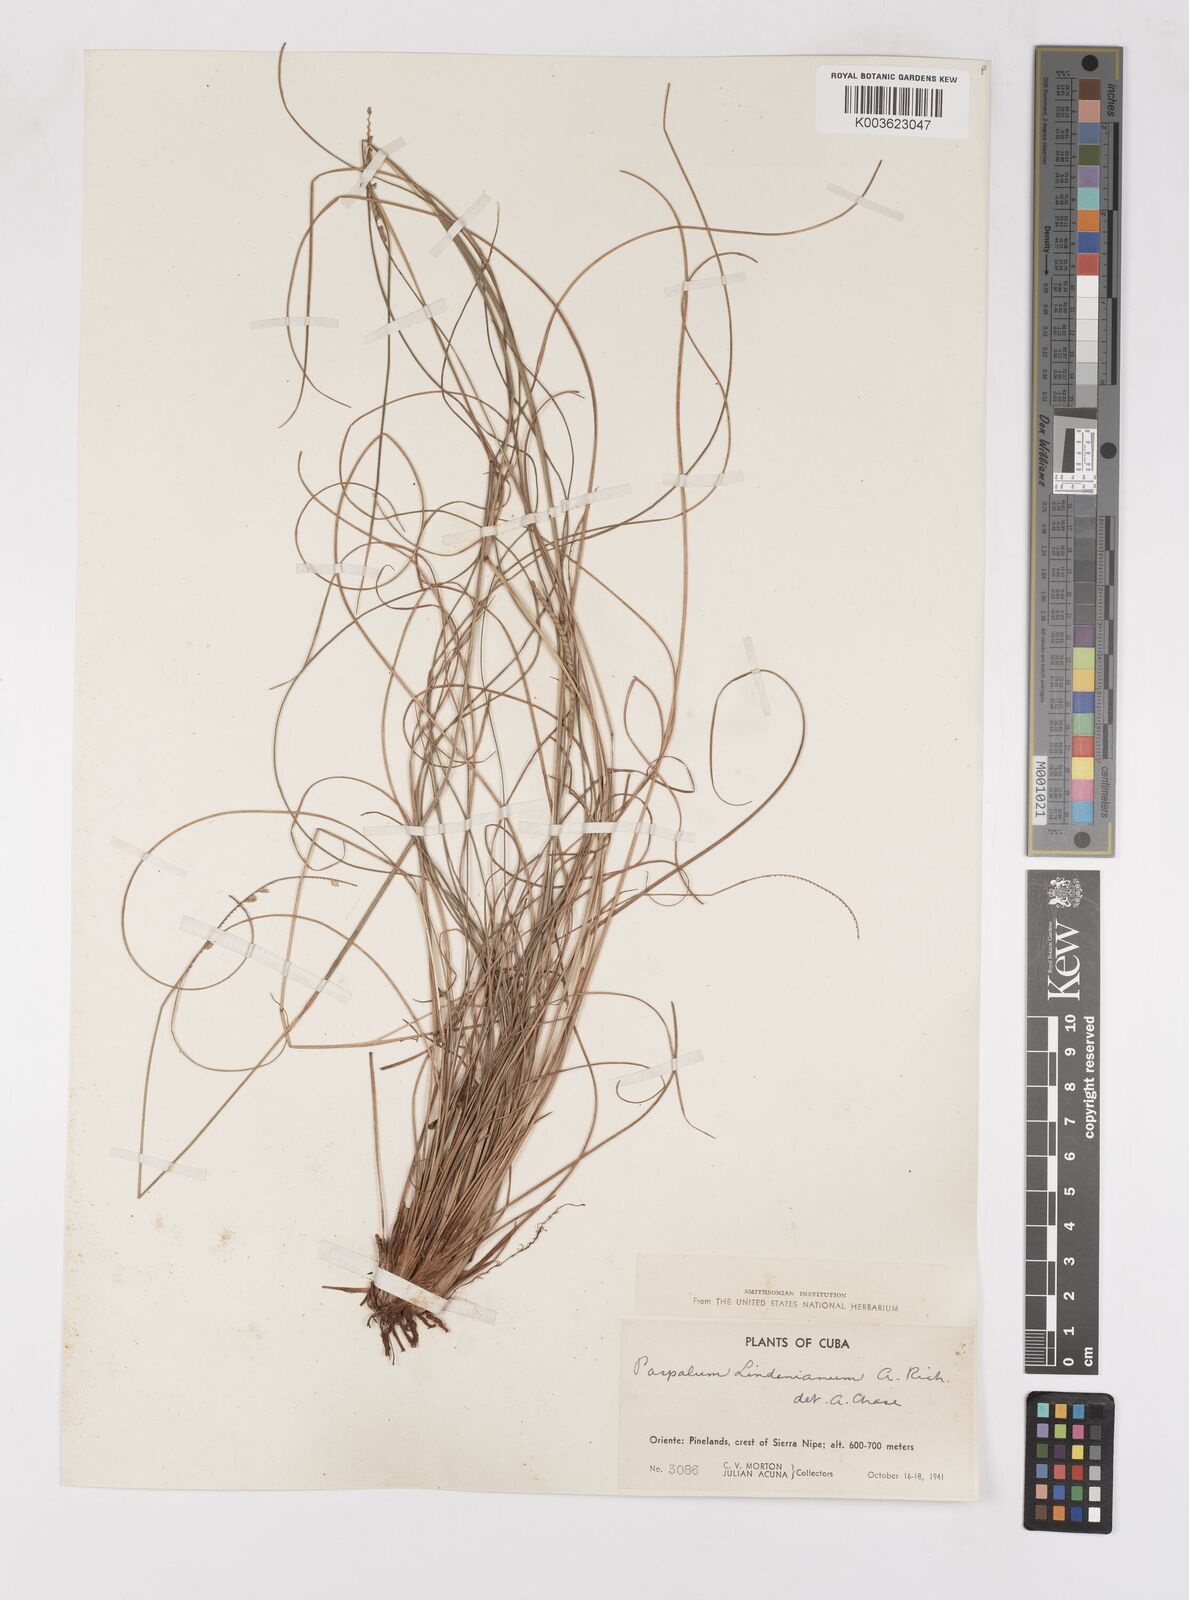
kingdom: Plantae
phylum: Tracheophyta
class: Liliopsida
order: Poales
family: Poaceae
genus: Paspalum
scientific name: Paspalum lindenianum
